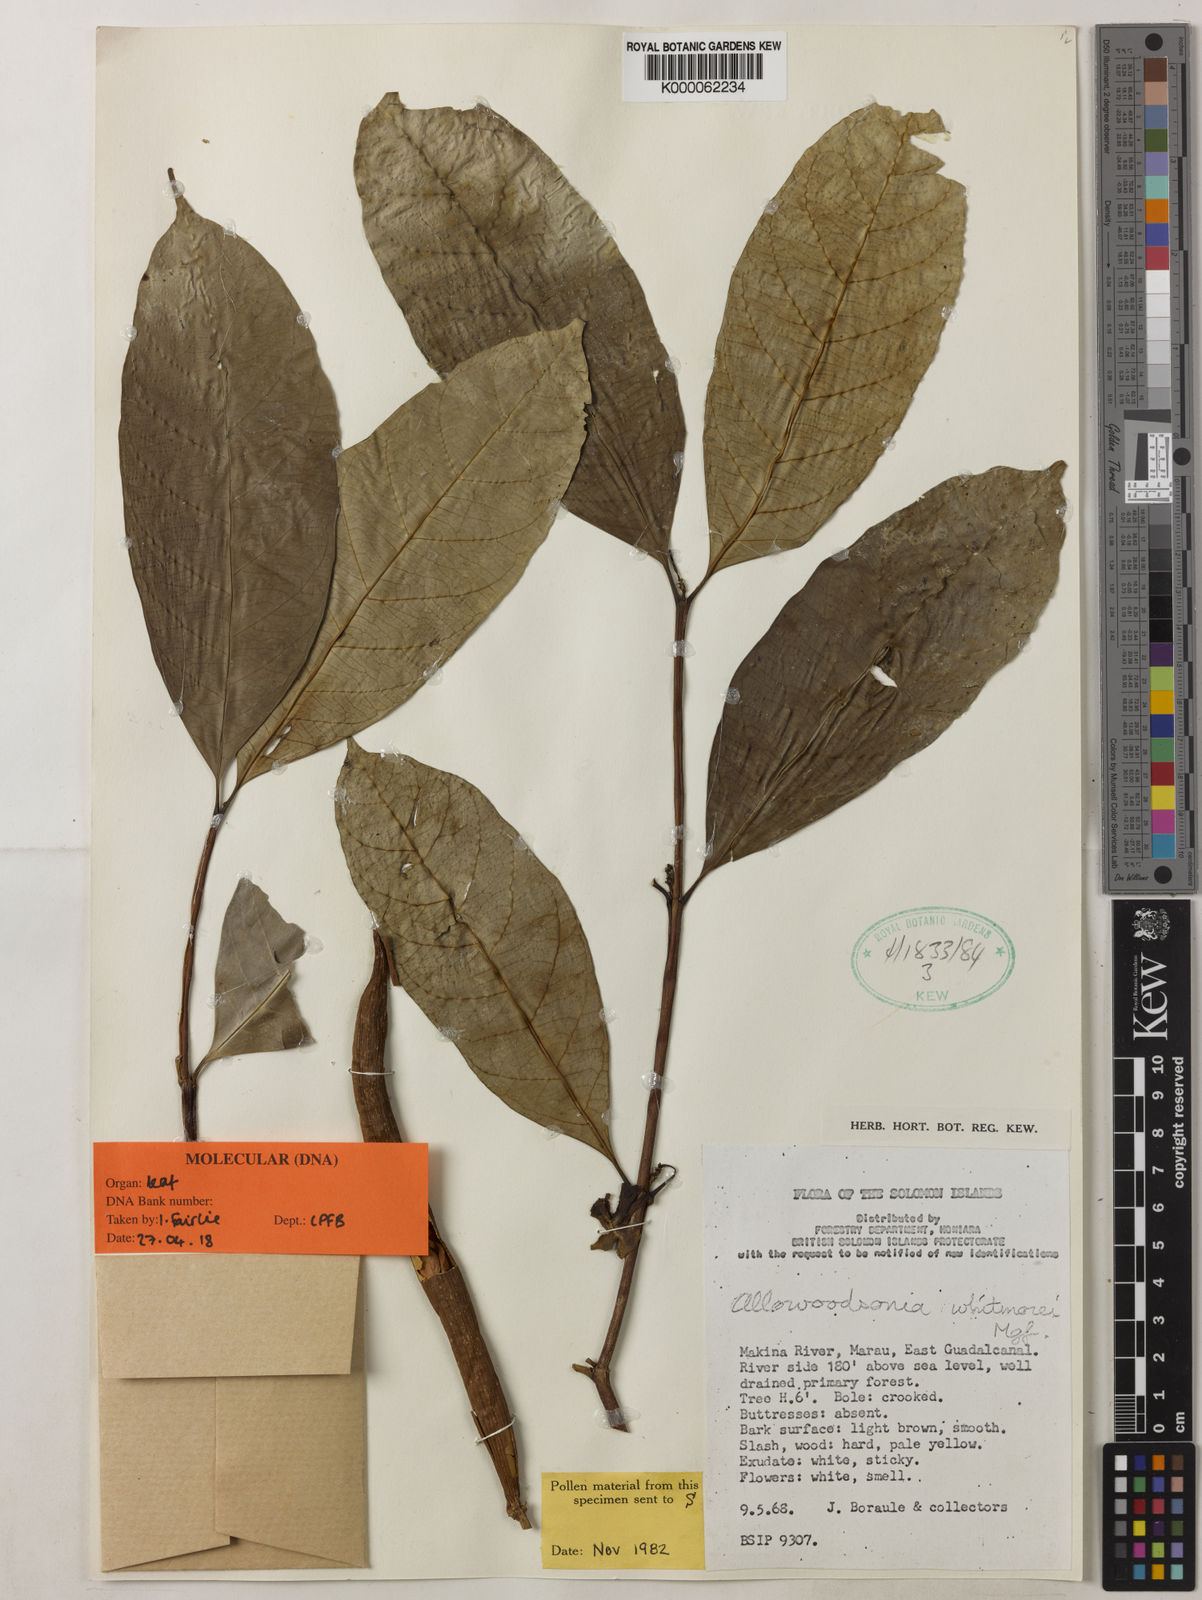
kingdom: Plantae
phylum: Tracheophyta
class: Magnoliopsida
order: Gentianales
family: Apocynaceae
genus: Allowoodsonia
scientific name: Allowoodsonia whitmorei
